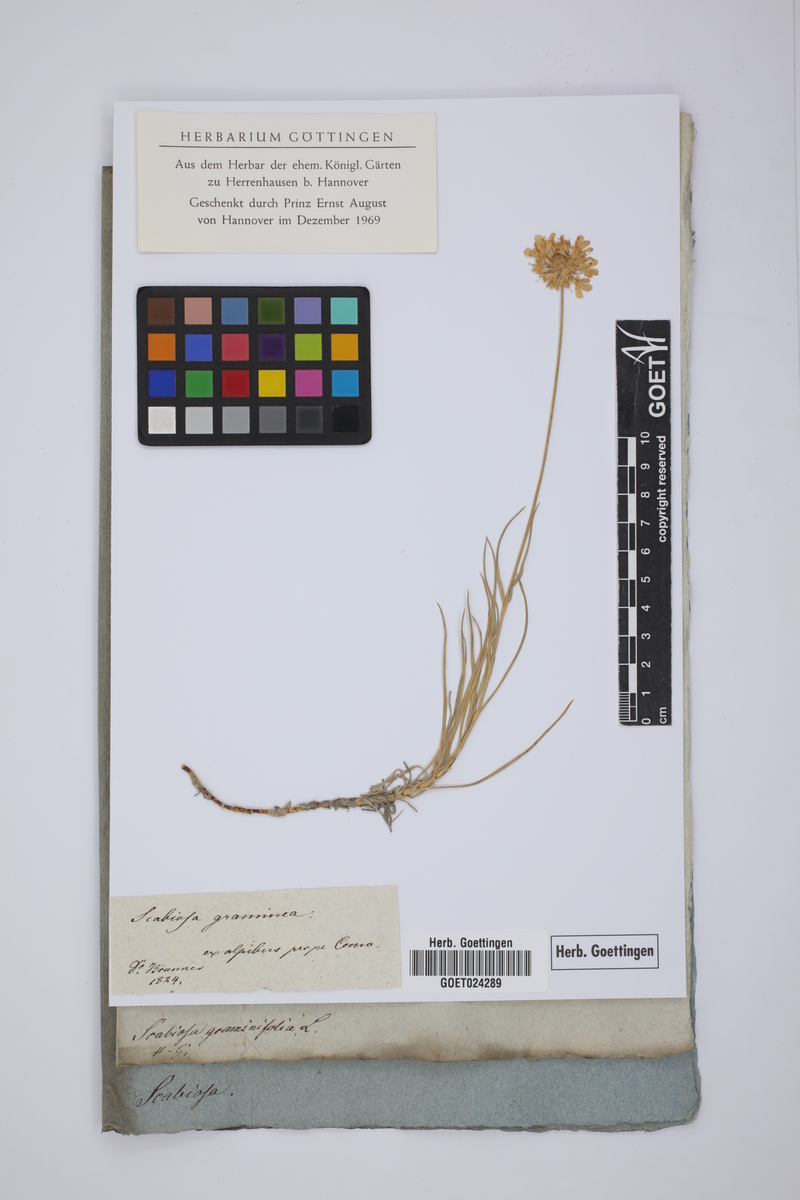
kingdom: Plantae
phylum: Tracheophyta
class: Magnoliopsida
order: Dipsacales
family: Caprifoliaceae
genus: Lomelosia
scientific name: Lomelosia graminifolia
